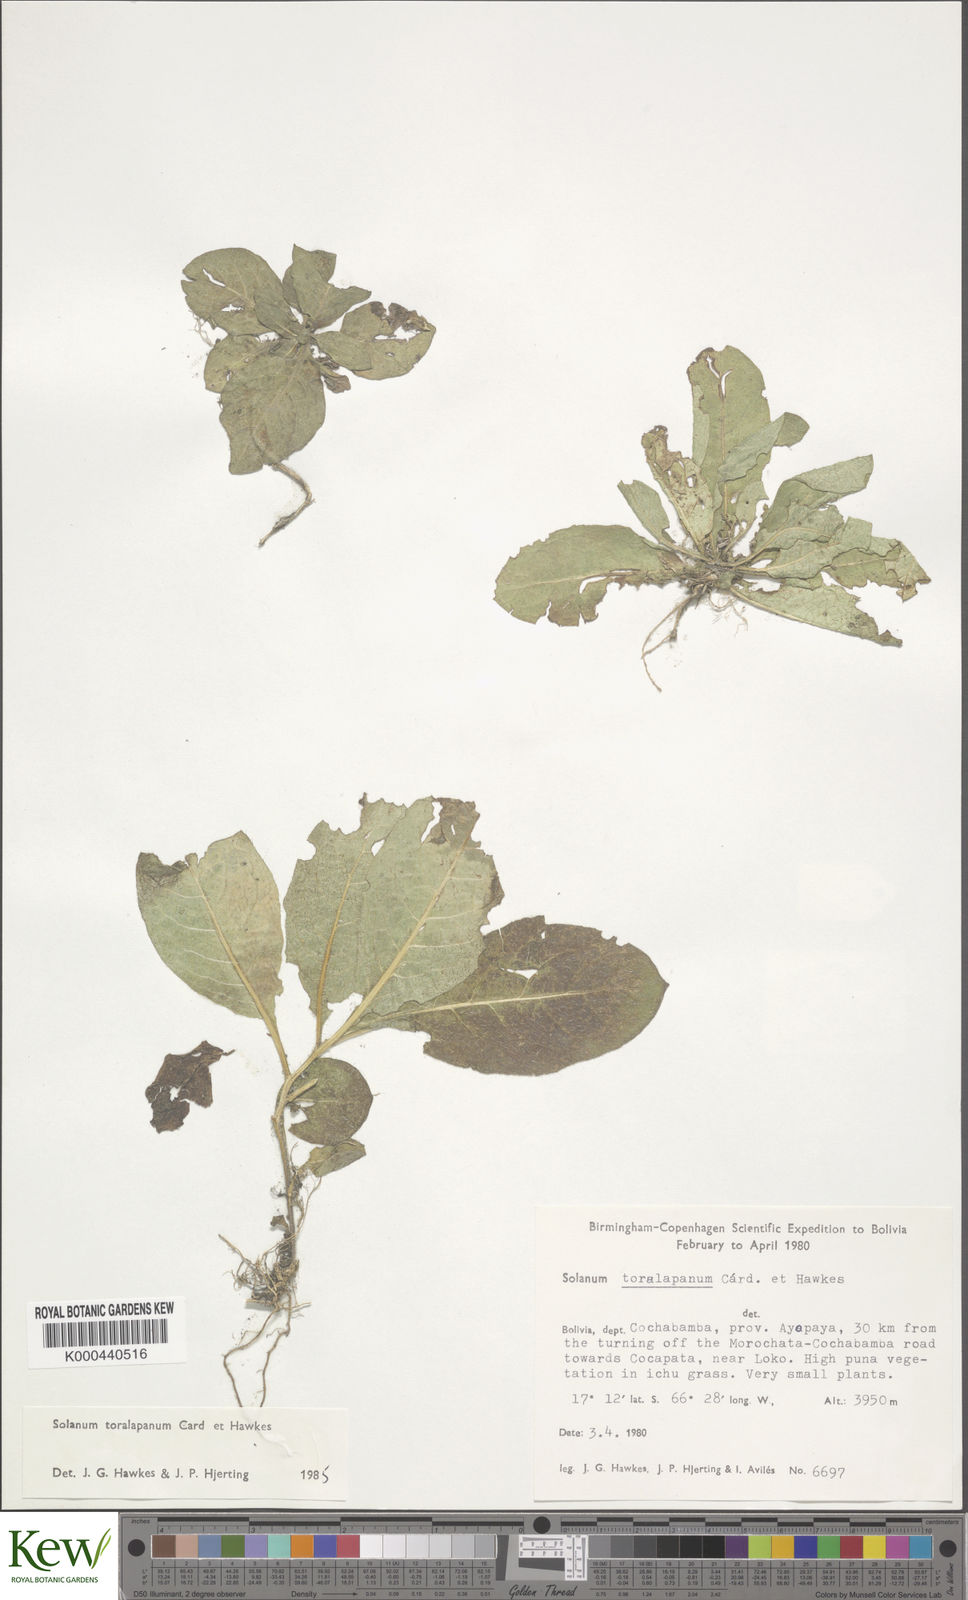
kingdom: Plantae
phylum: Tracheophyta
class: Magnoliopsida
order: Solanales
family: Solanaceae
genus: Solanum
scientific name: Solanum boliviense
